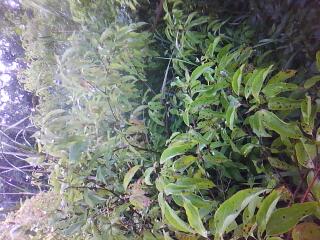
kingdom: Plantae
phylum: Tracheophyta
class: Liliopsida
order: Poales
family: Cyperaceae
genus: Carex
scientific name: Carex stricta
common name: Hummock sedge
